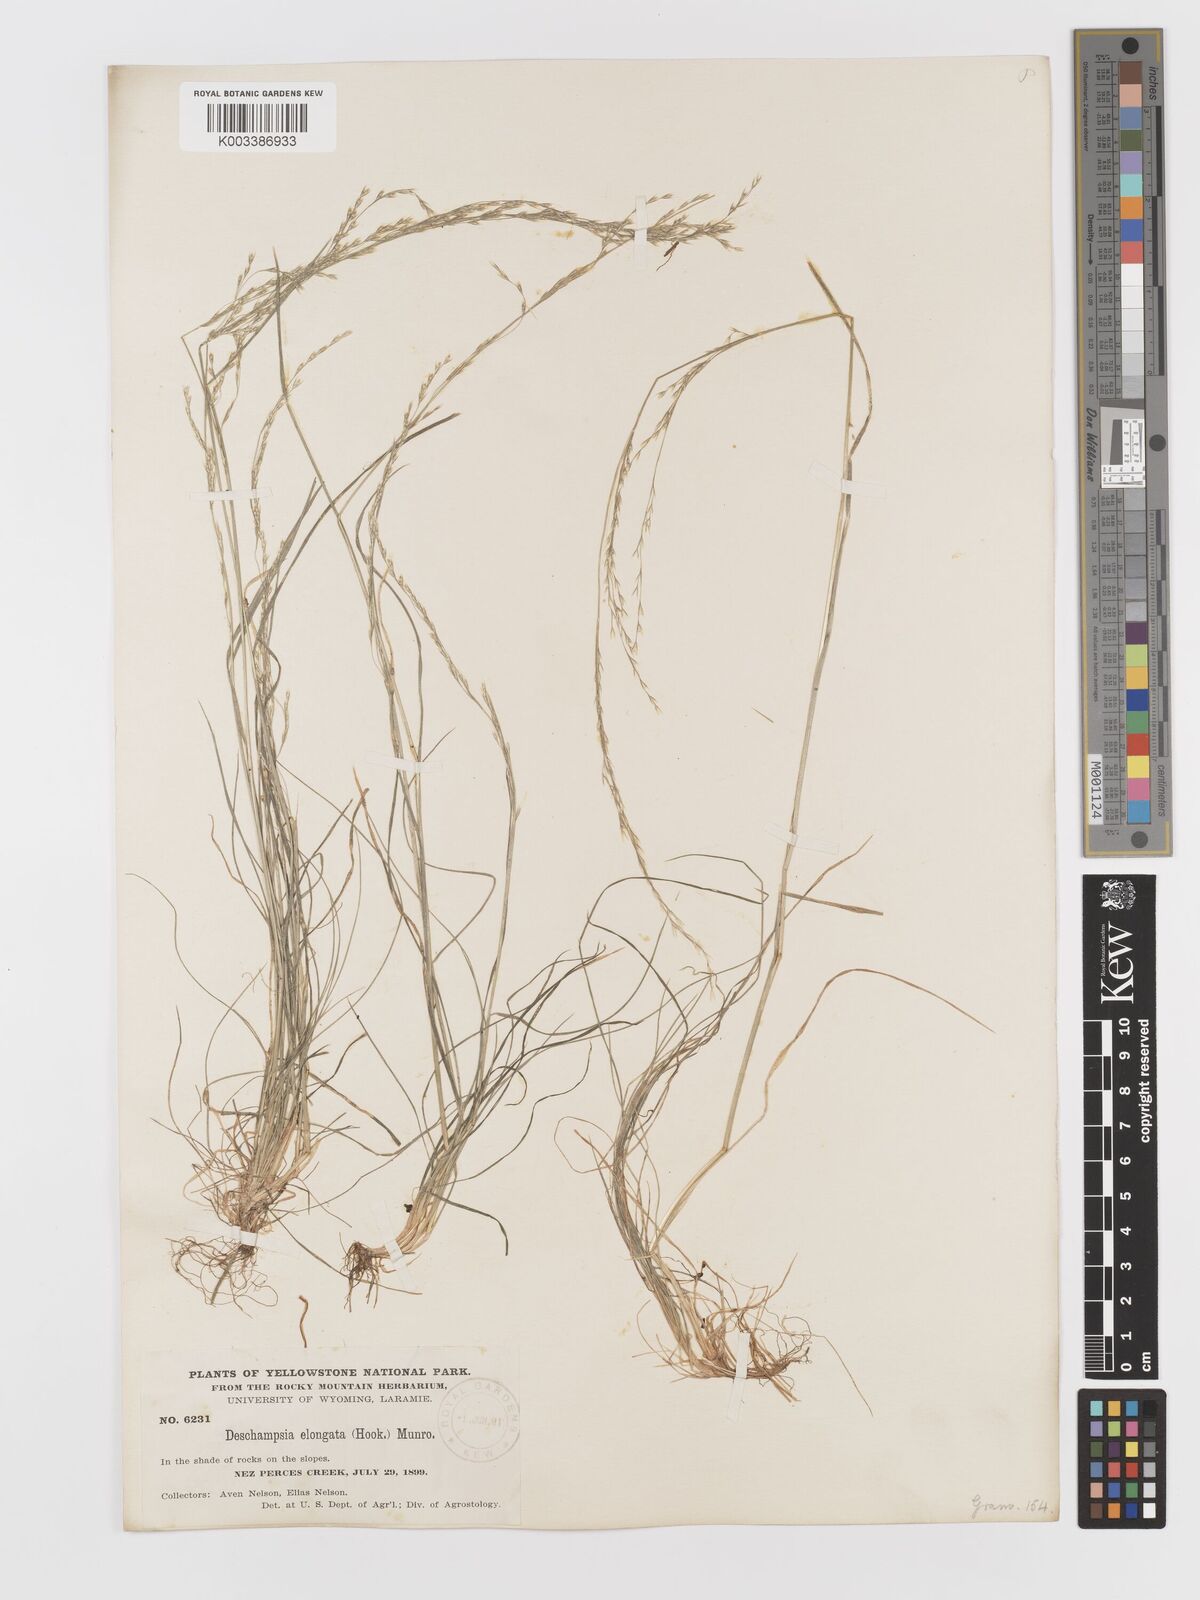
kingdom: Plantae
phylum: Tracheophyta
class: Liliopsida
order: Poales
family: Poaceae
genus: Deschampsia
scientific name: Deschampsia elongata
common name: Slender hairgrass
